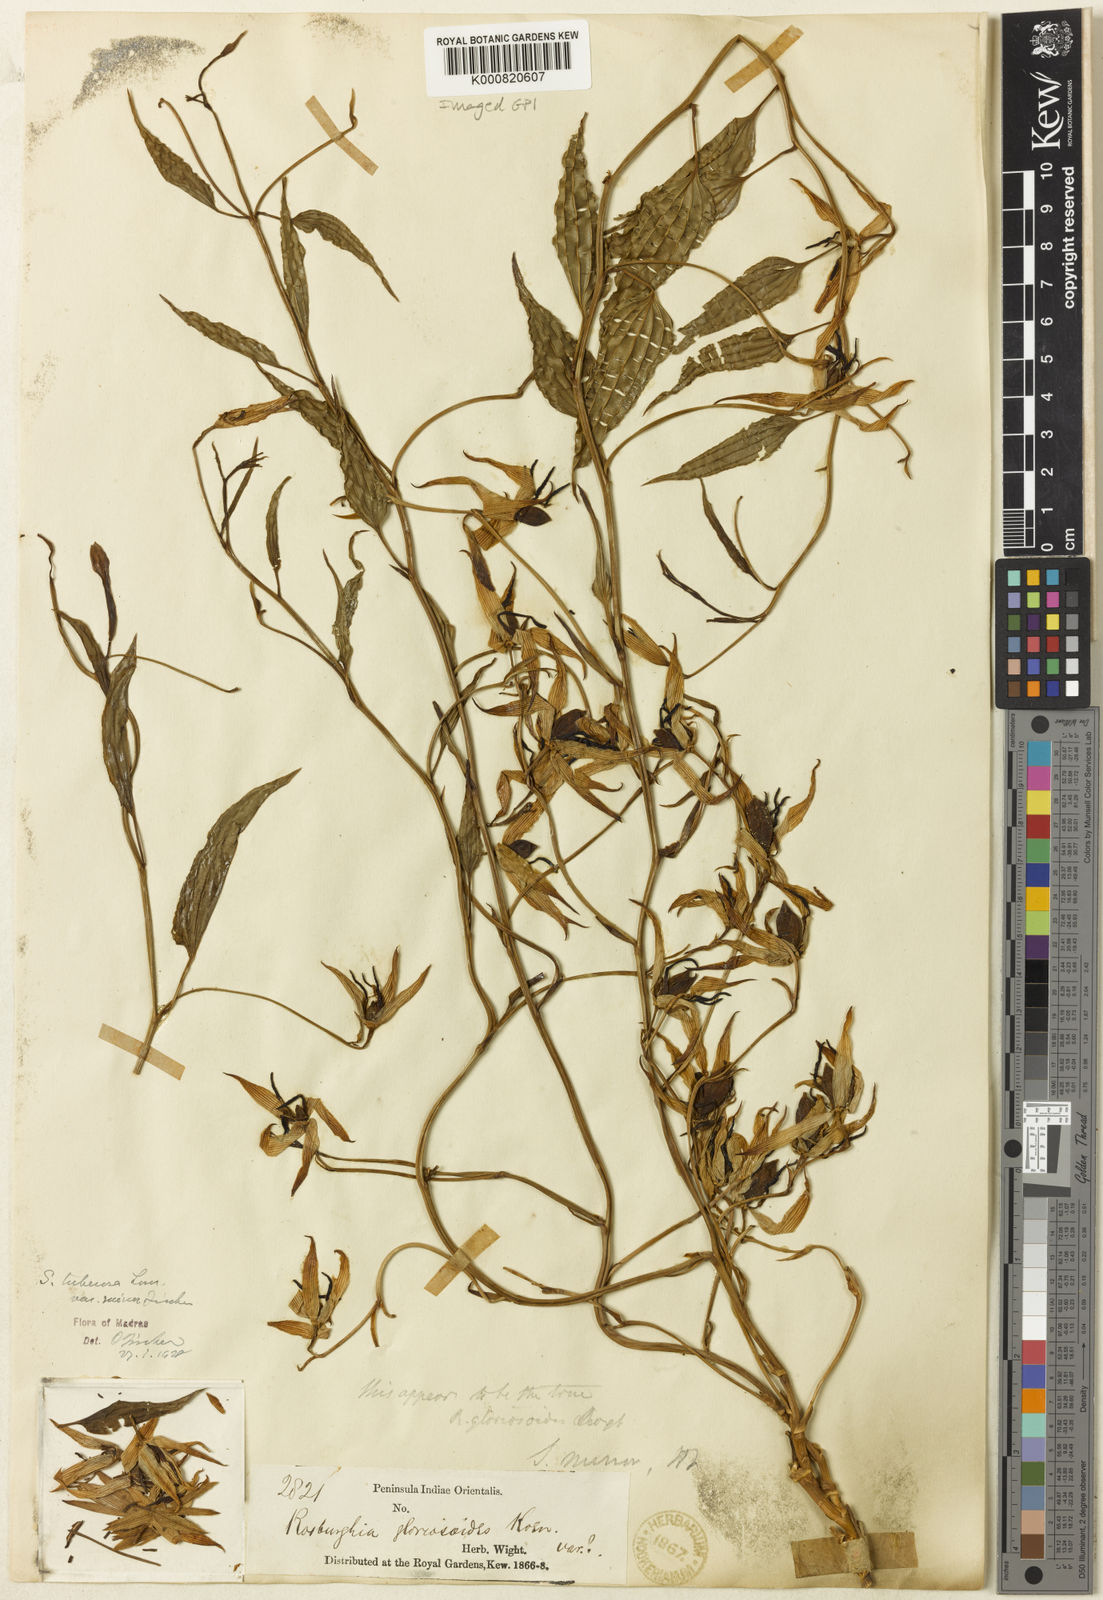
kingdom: Plantae
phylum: Tracheophyta
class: Liliopsida
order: Pandanales
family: Stemonaceae
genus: Stemona
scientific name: Stemona tuberosa
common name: Stemona
